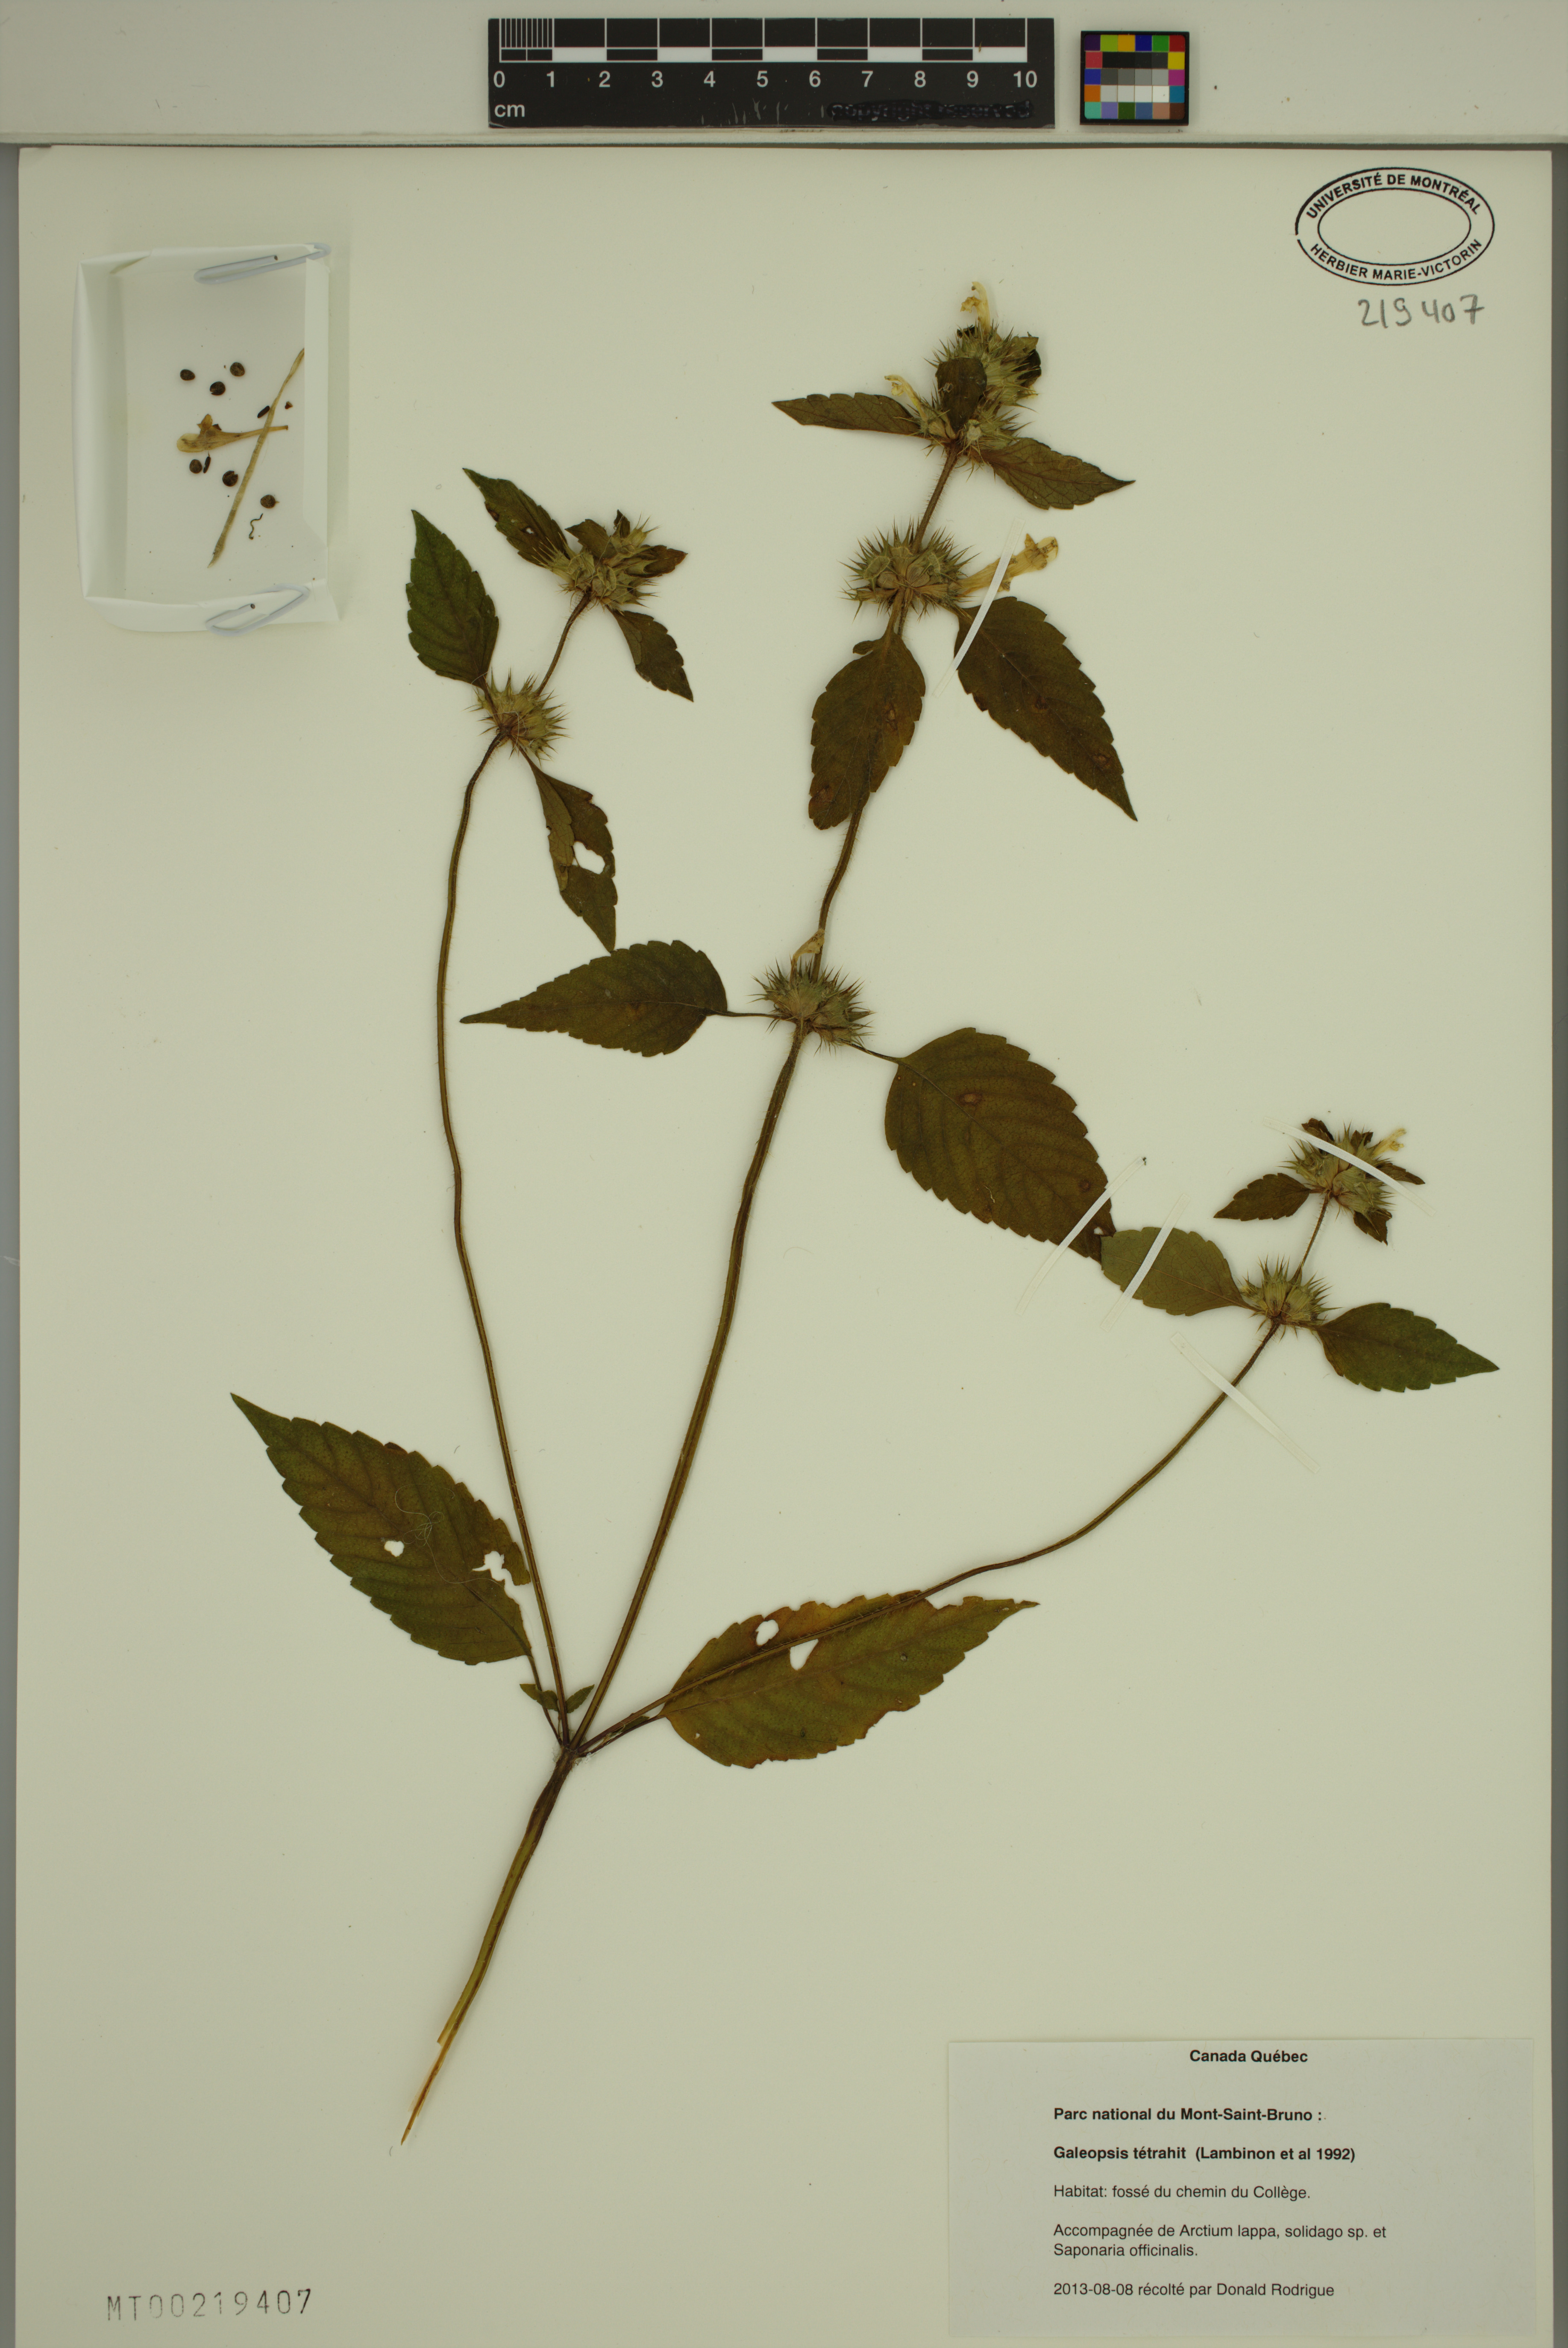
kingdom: Plantae
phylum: Tracheophyta
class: Magnoliopsida
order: Lamiales
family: Lamiaceae
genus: Galeopsis
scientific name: Galeopsis tetrahit
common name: Common hemp-nettle
